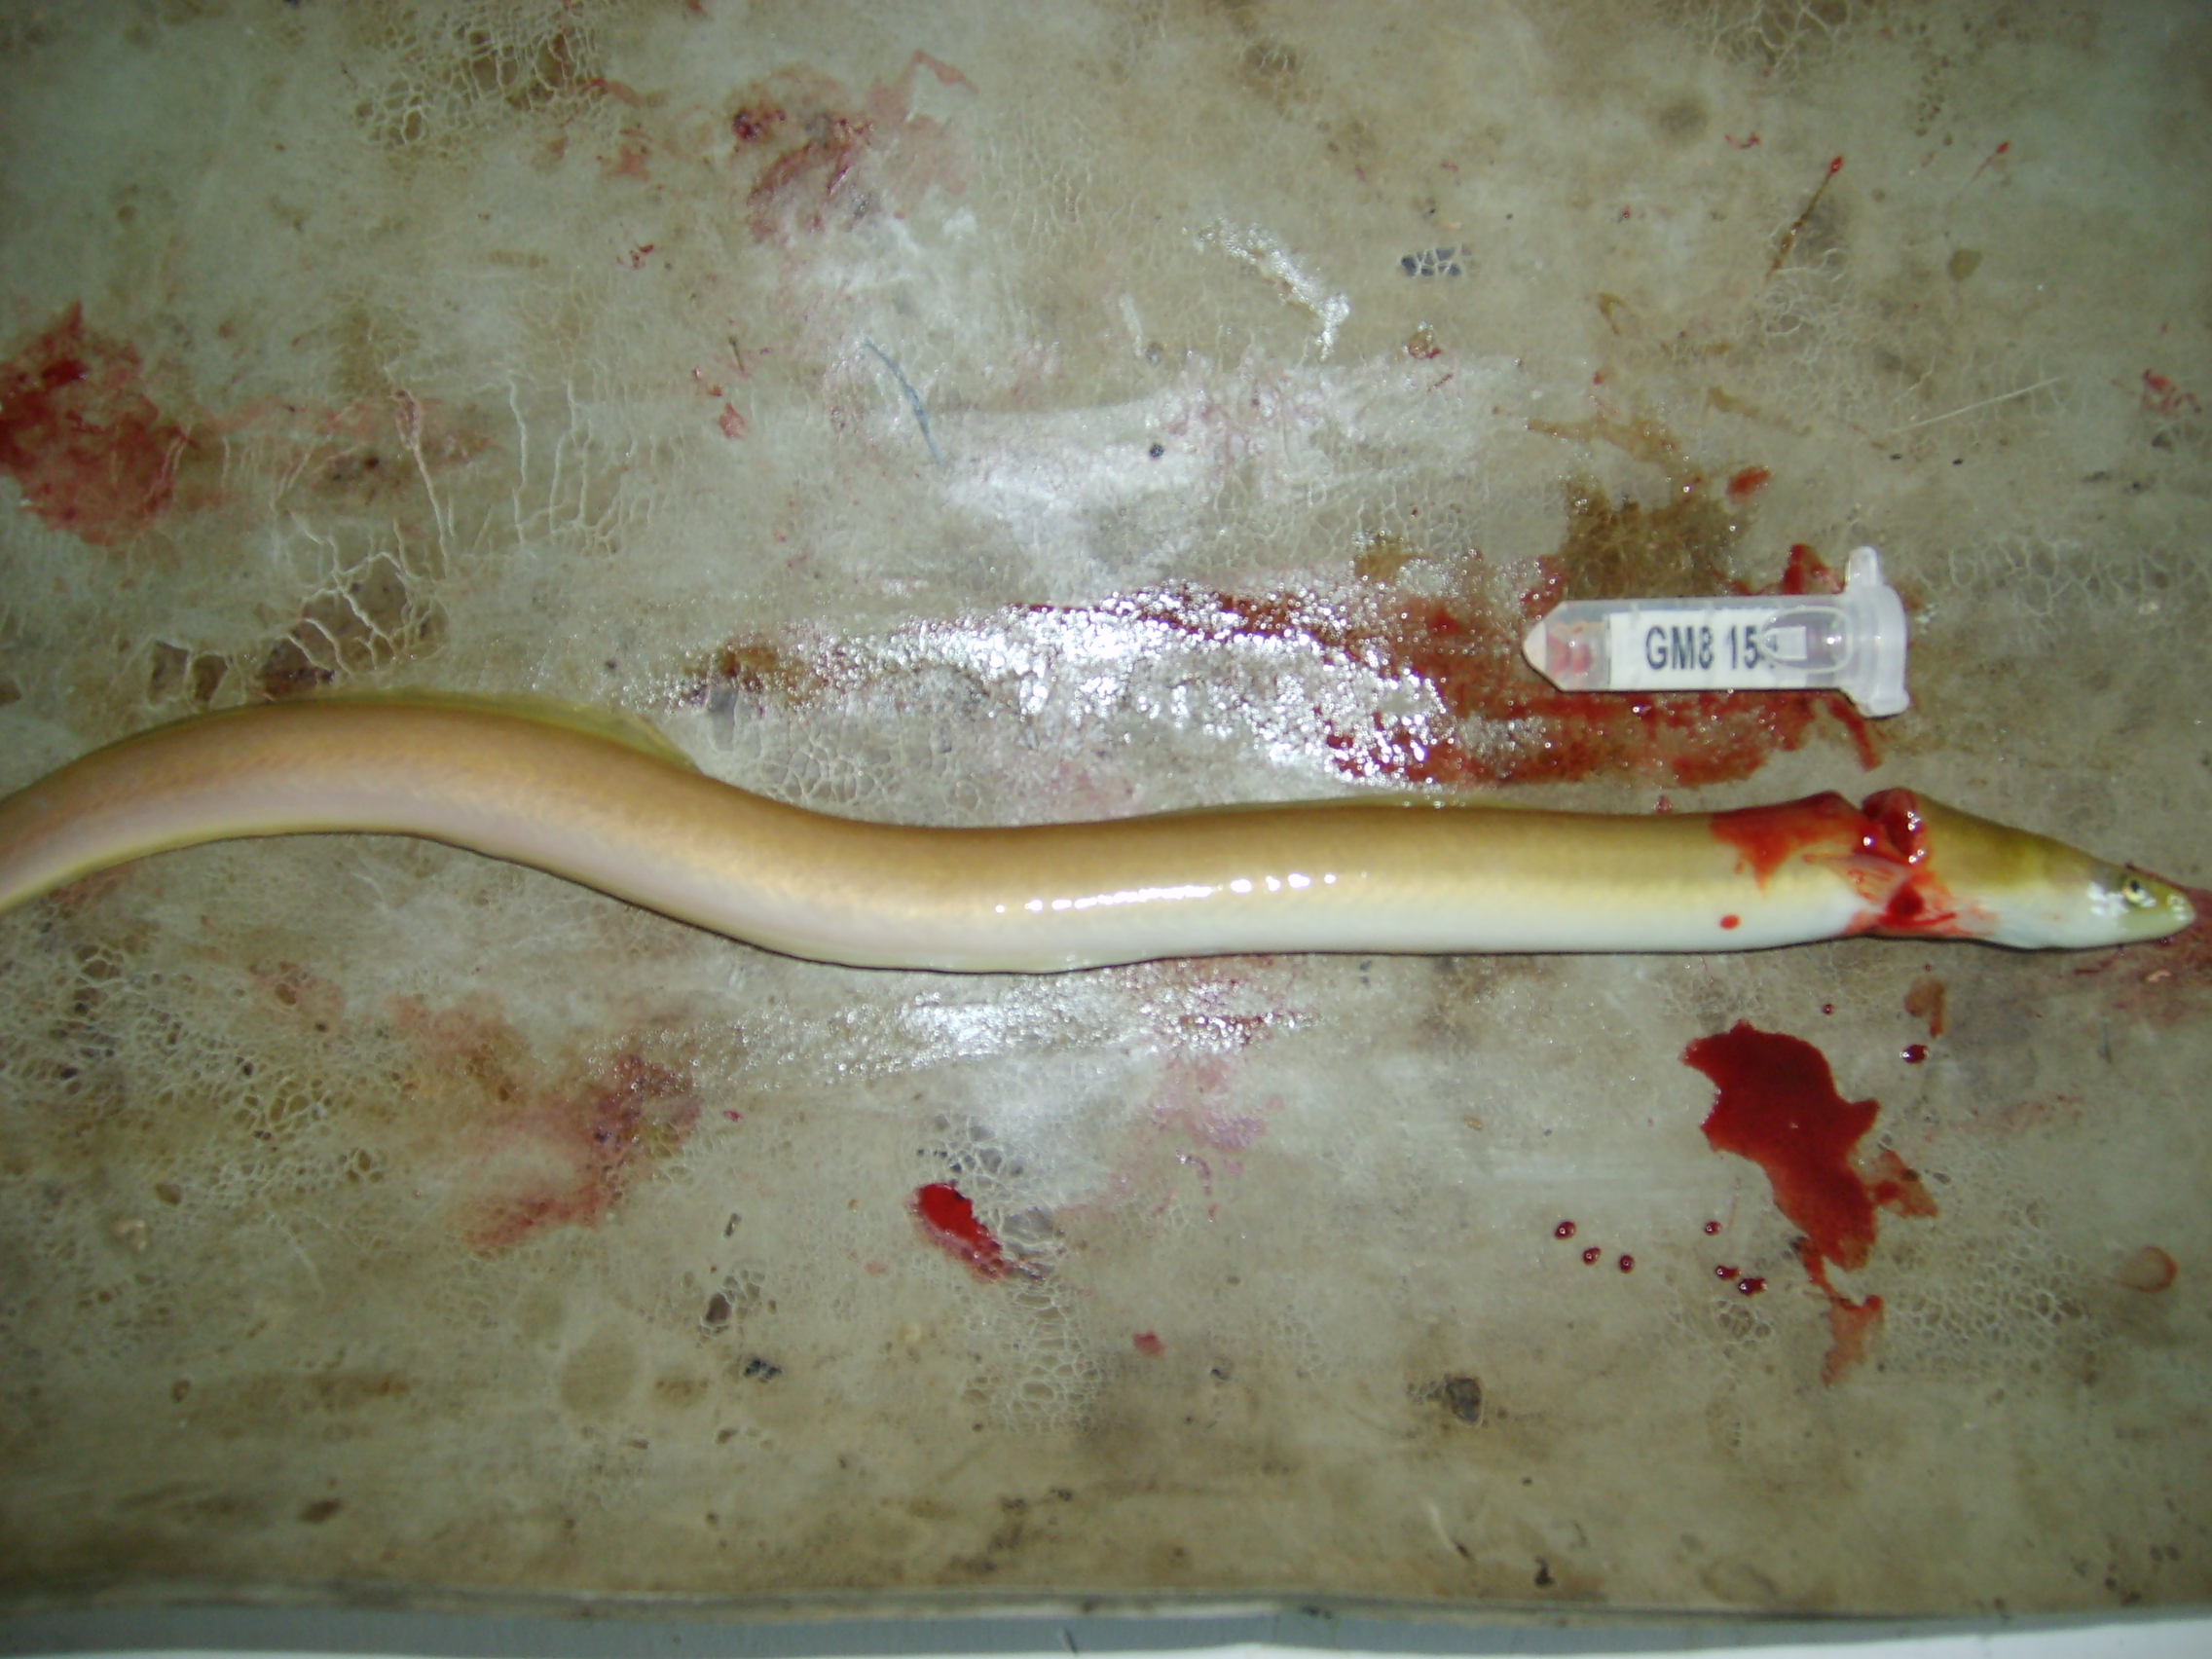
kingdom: Animalia
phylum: Chordata
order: Anguilliformes
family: Anguillidae
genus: Anguilla
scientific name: Anguilla mossambica
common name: African longfin eel
